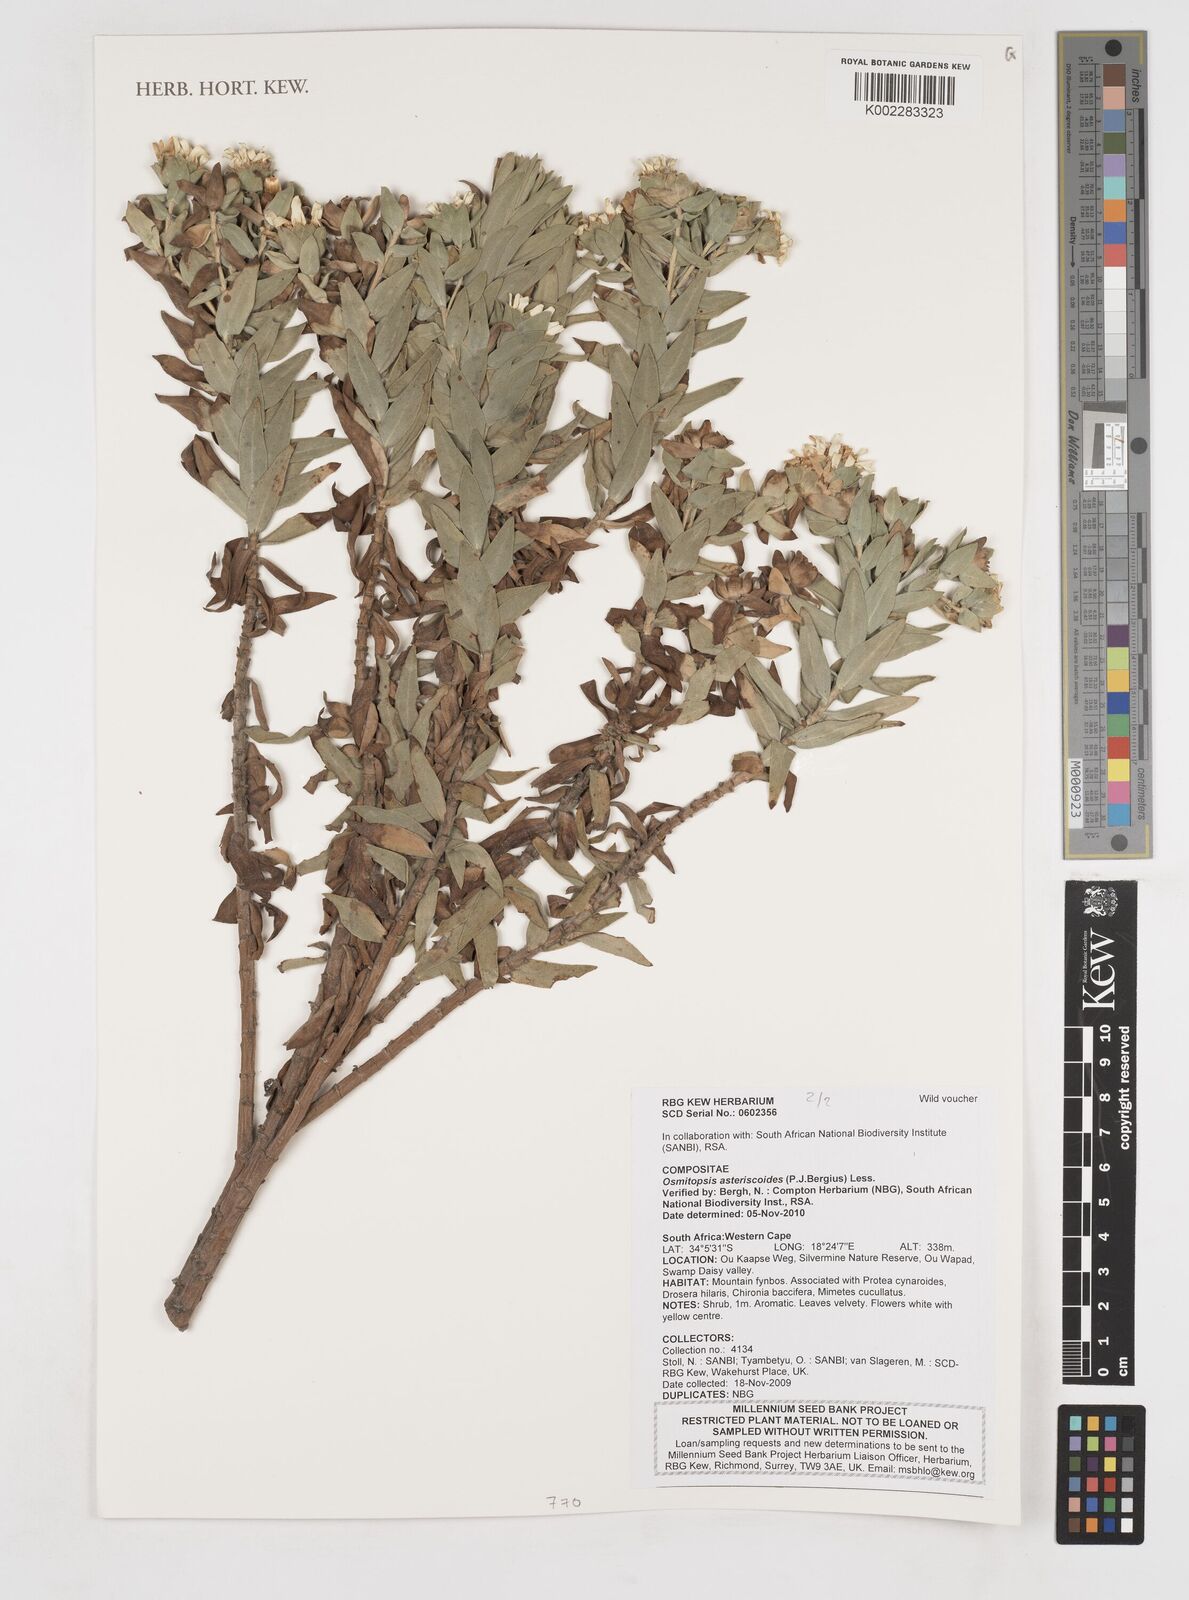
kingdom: Plantae
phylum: Tracheophyta
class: Magnoliopsida
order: Asterales
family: Asteraceae
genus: Osmitopsis
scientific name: Osmitopsis asteriscoides
